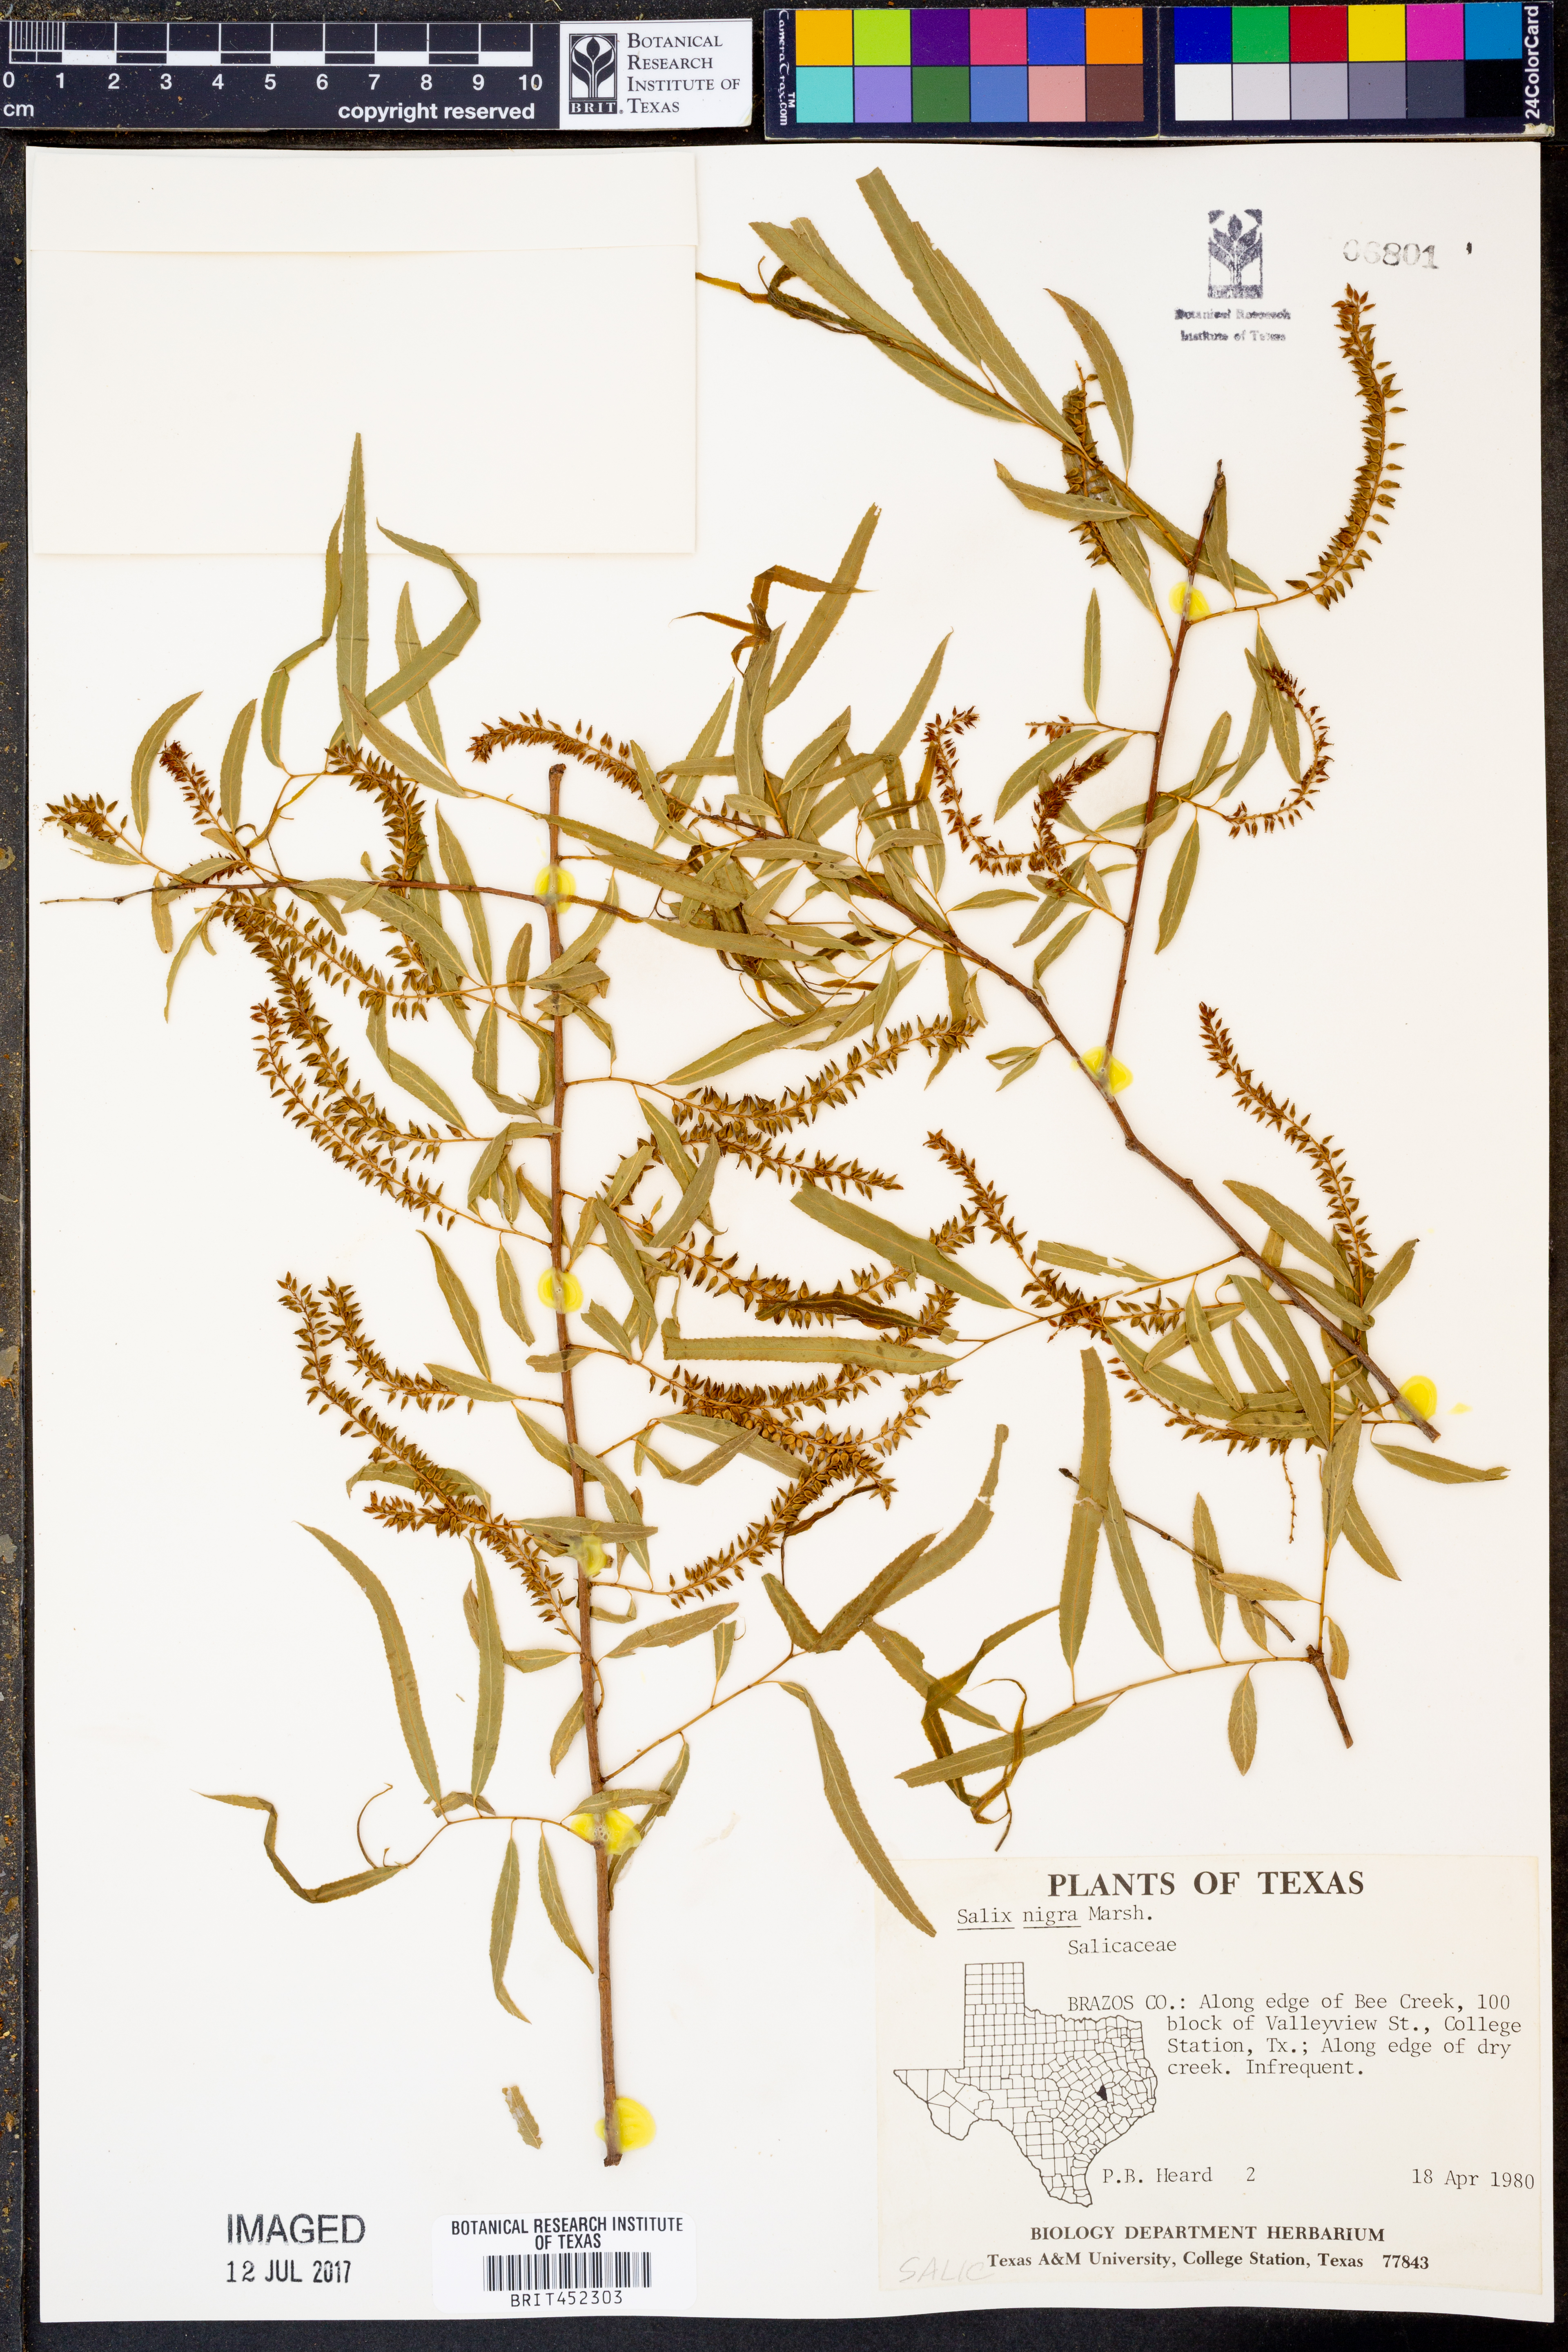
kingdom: Plantae
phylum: Tracheophyta
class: Magnoliopsida
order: Malpighiales
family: Salicaceae
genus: Salix
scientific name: Salix nigra
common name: Black willow
